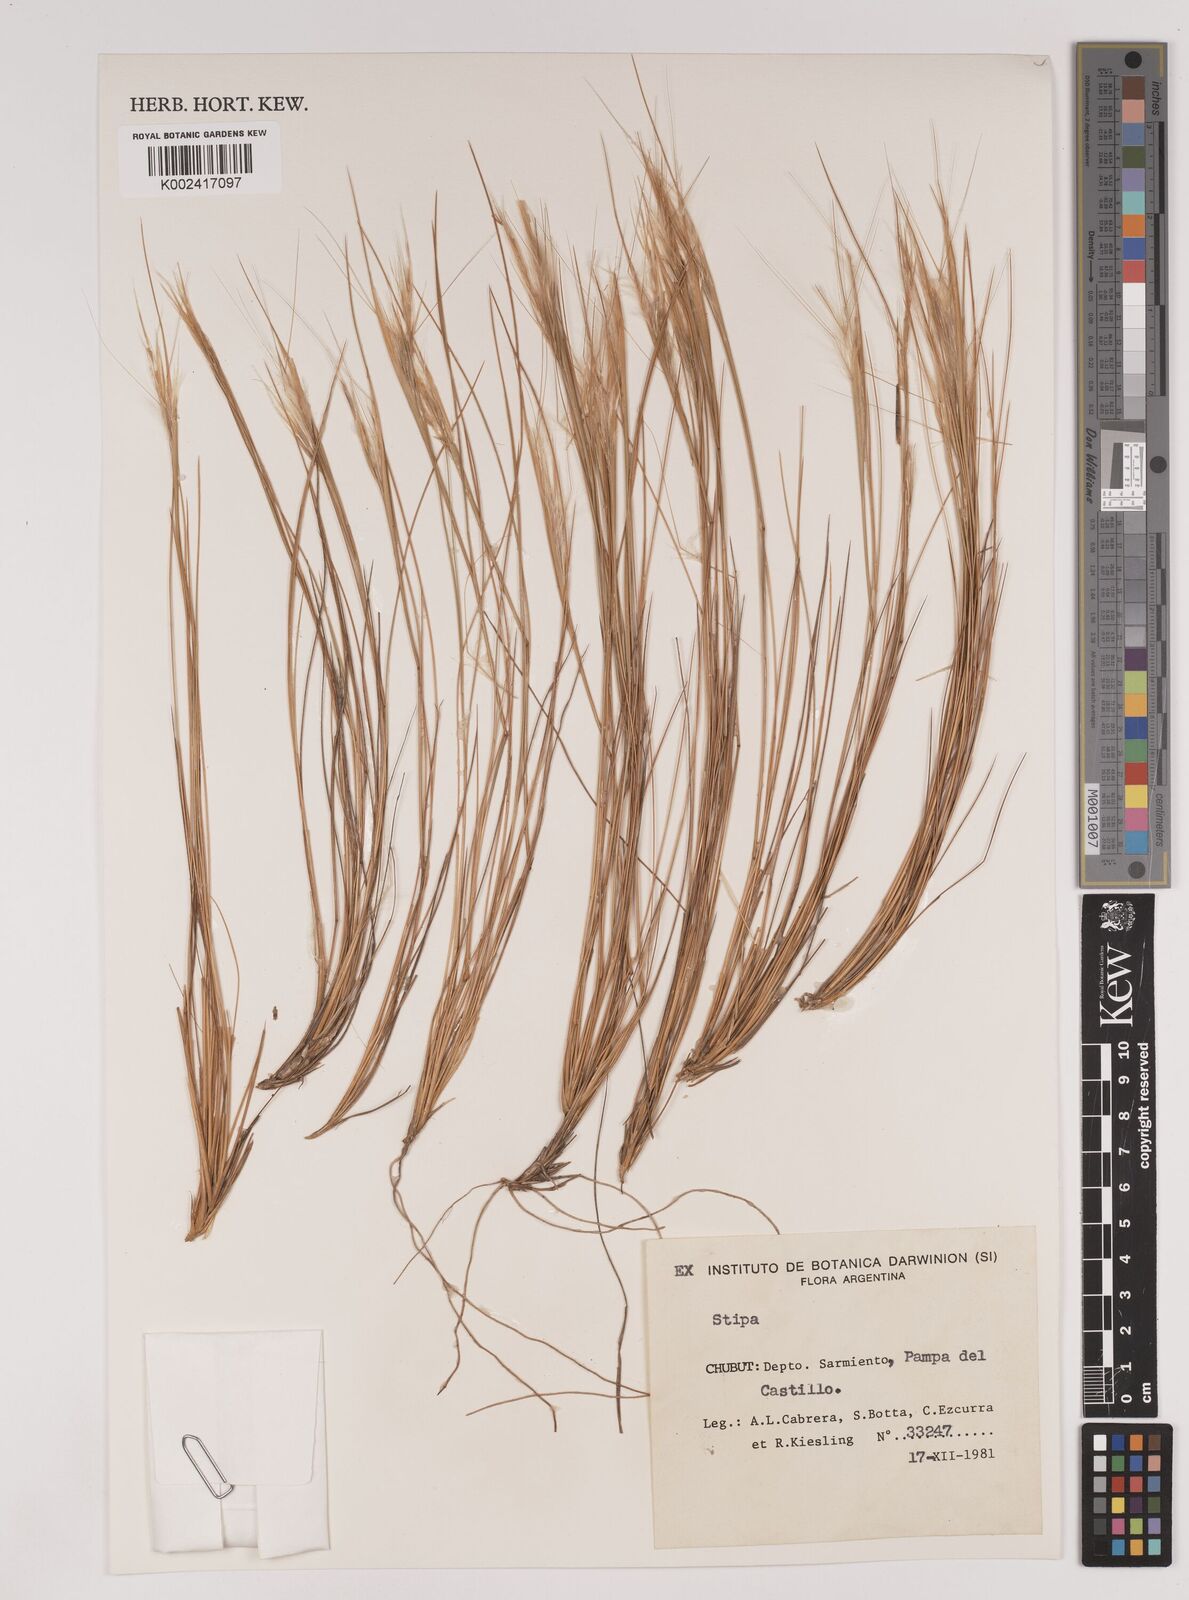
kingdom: Plantae
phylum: Tracheophyta
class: Liliopsida
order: Poales
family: Poaceae
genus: Stipa
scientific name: Stipa
